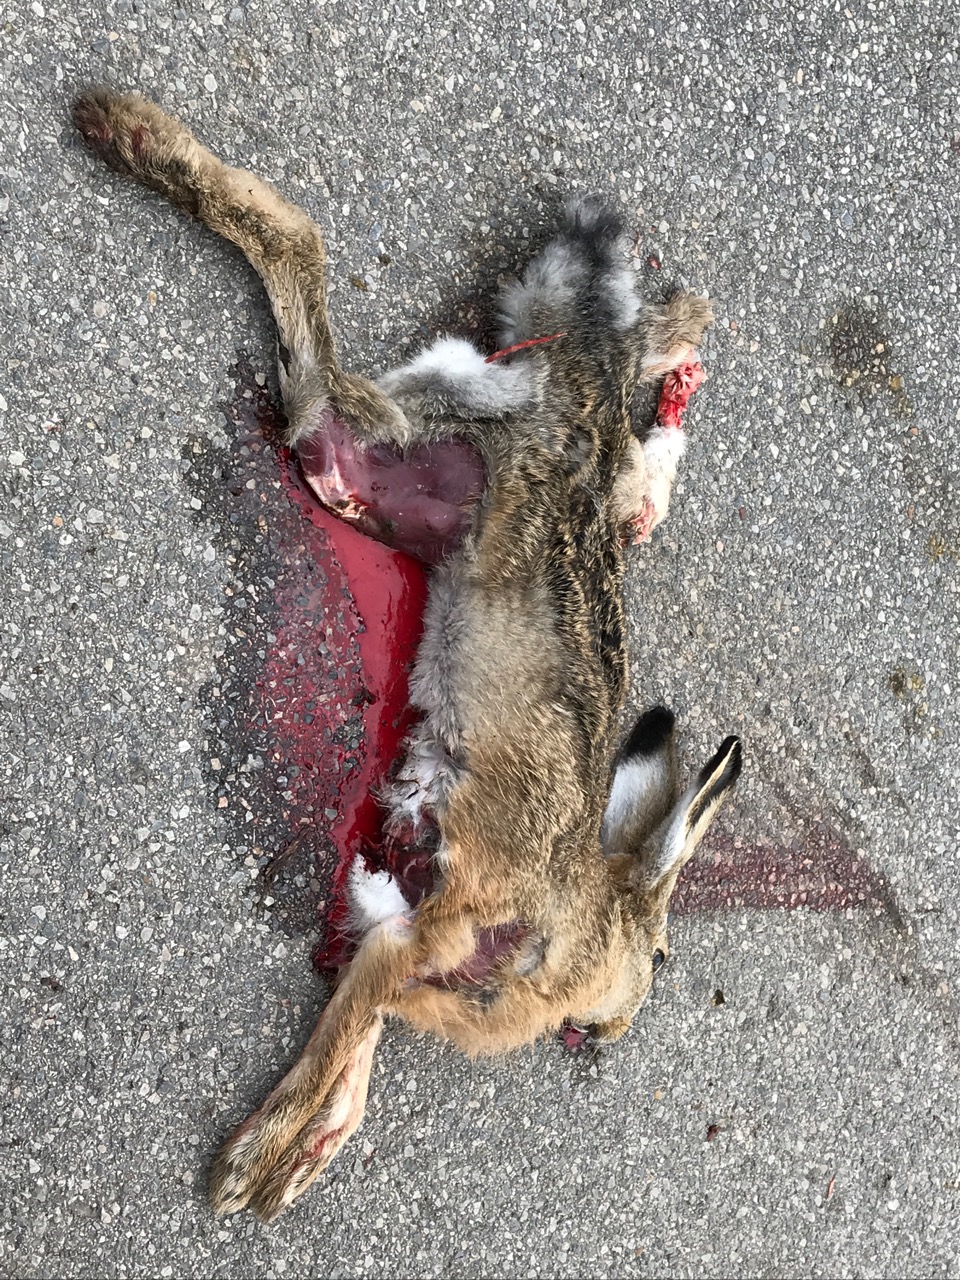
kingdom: Animalia
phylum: Chordata
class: Mammalia
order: Lagomorpha
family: Leporidae
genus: Lepus
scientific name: Lepus europaeus
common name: European hare
